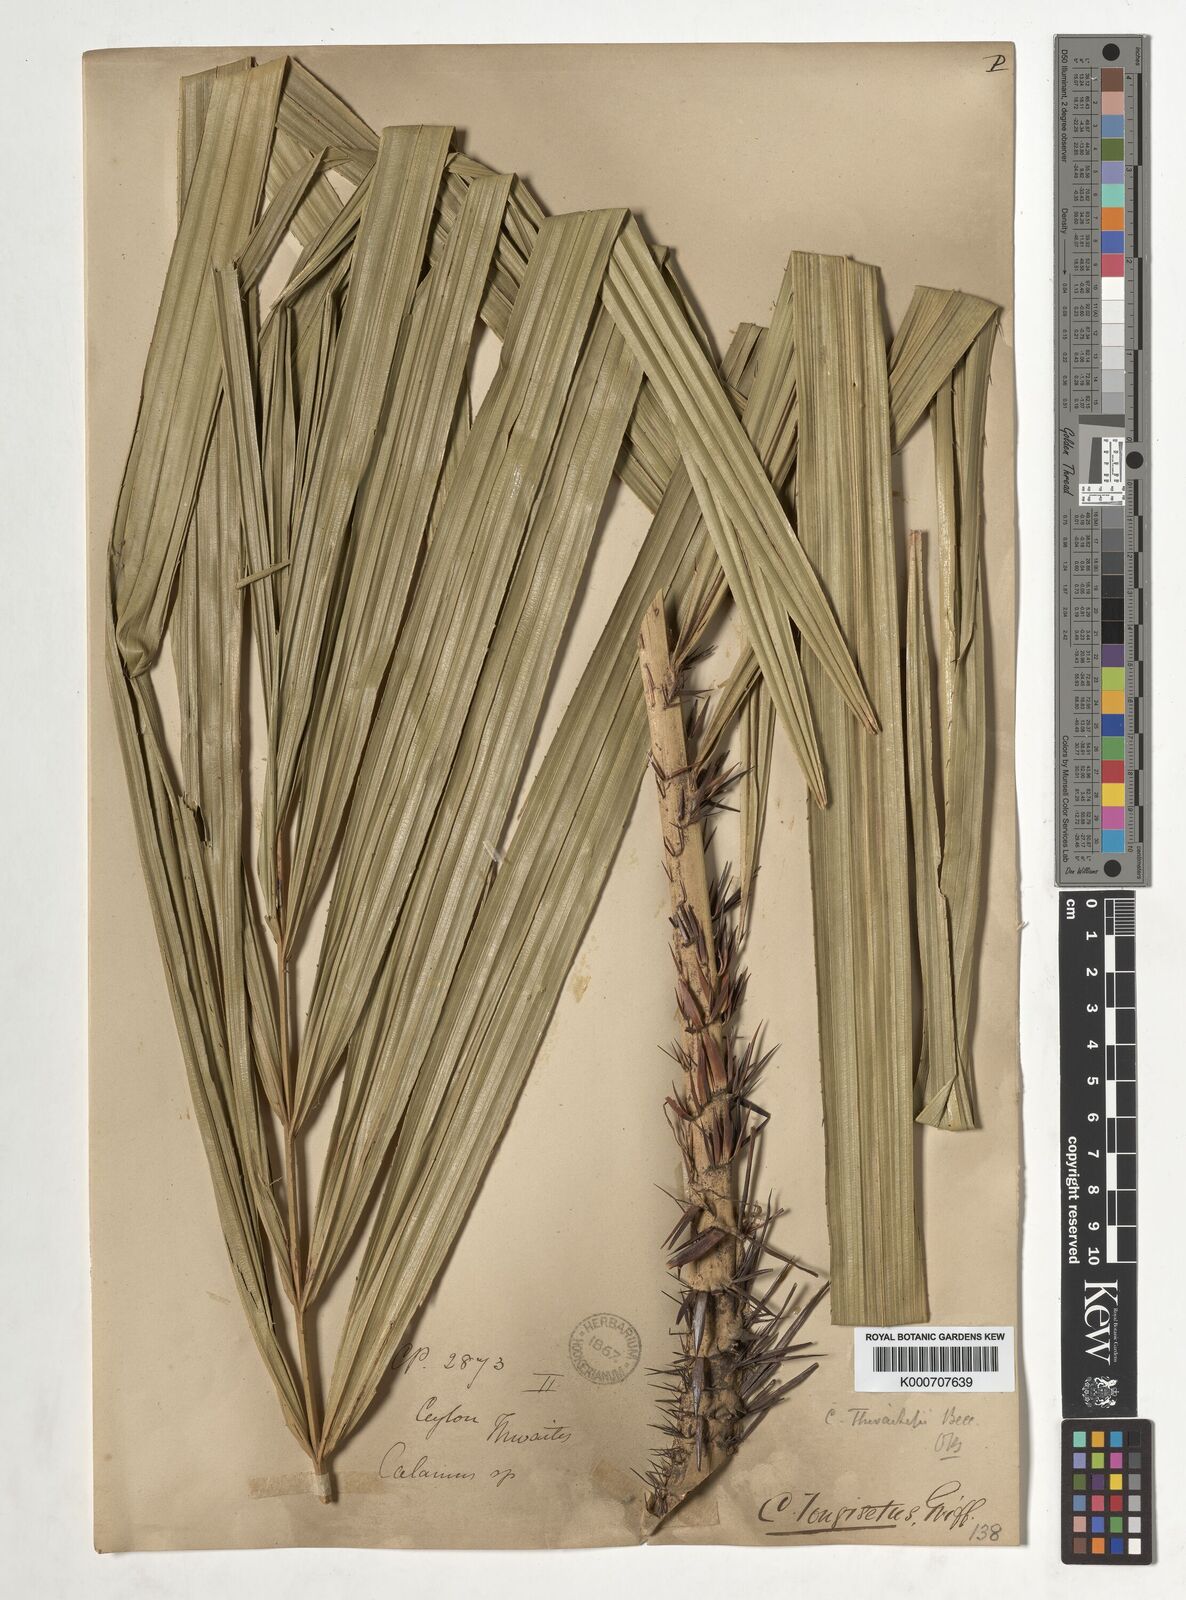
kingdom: Plantae
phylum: Tracheophyta
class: Liliopsida
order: Arecales
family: Arecaceae
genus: Calamus
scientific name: Calamus thwaitesii
